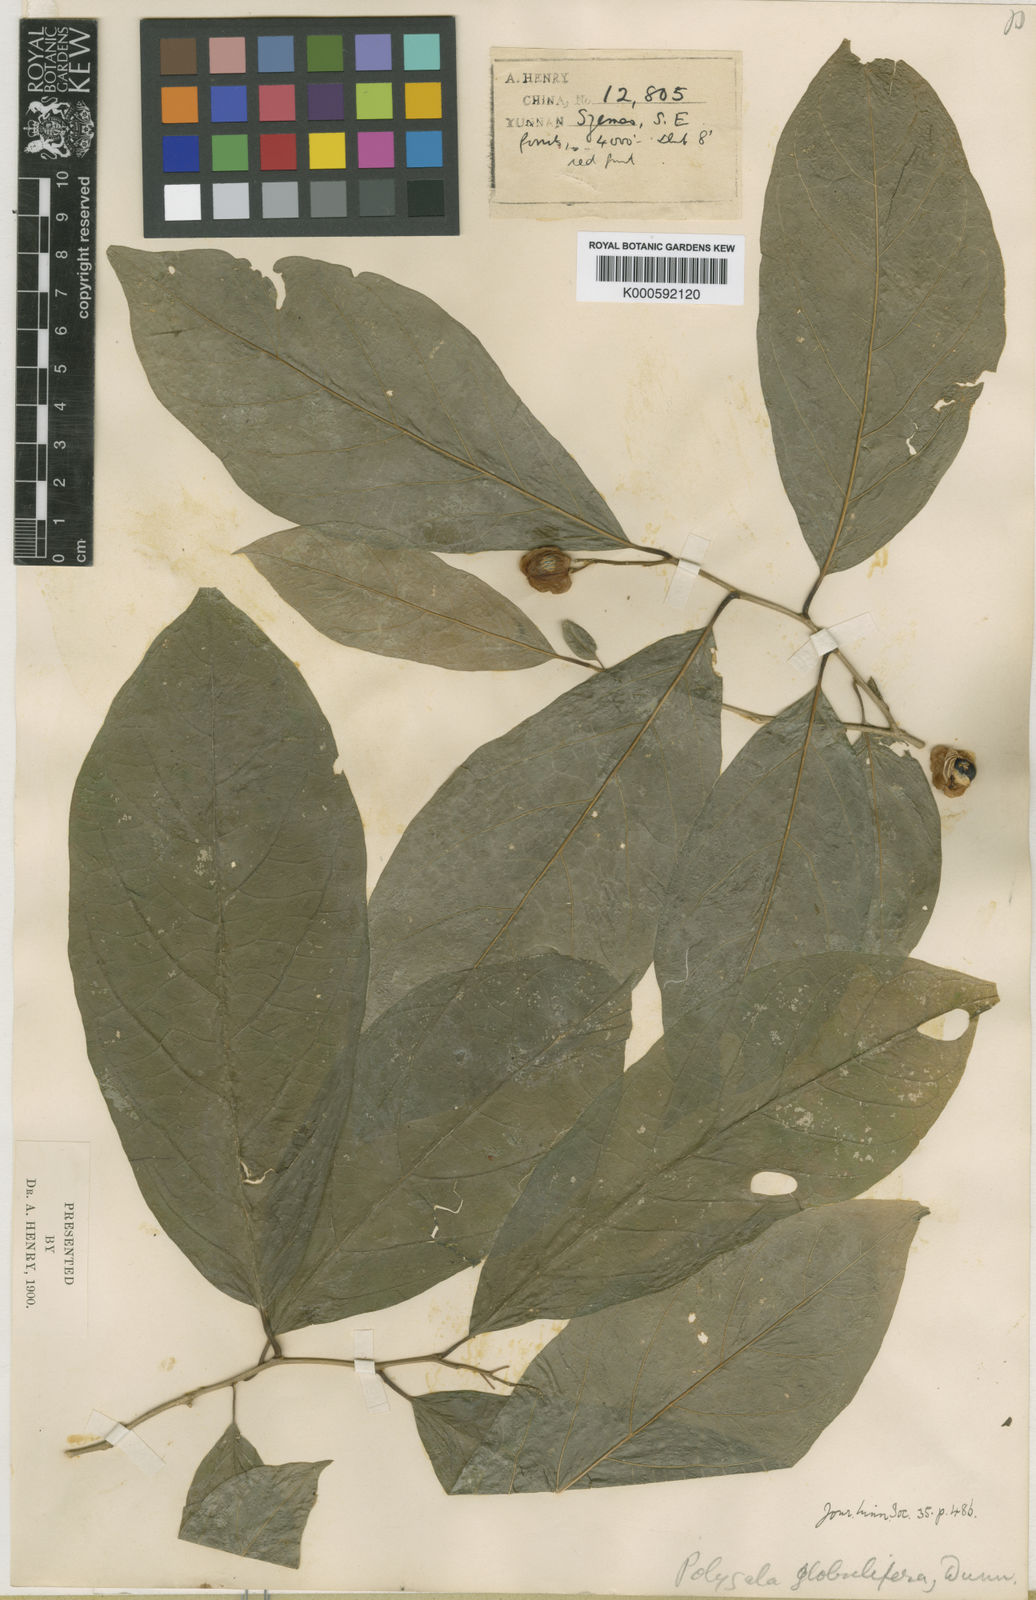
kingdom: Plantae
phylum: Tracheophyta
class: Magnoliopsida
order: Fabales
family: Polygalaceae
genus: Polygala
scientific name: Polygala globulifera
